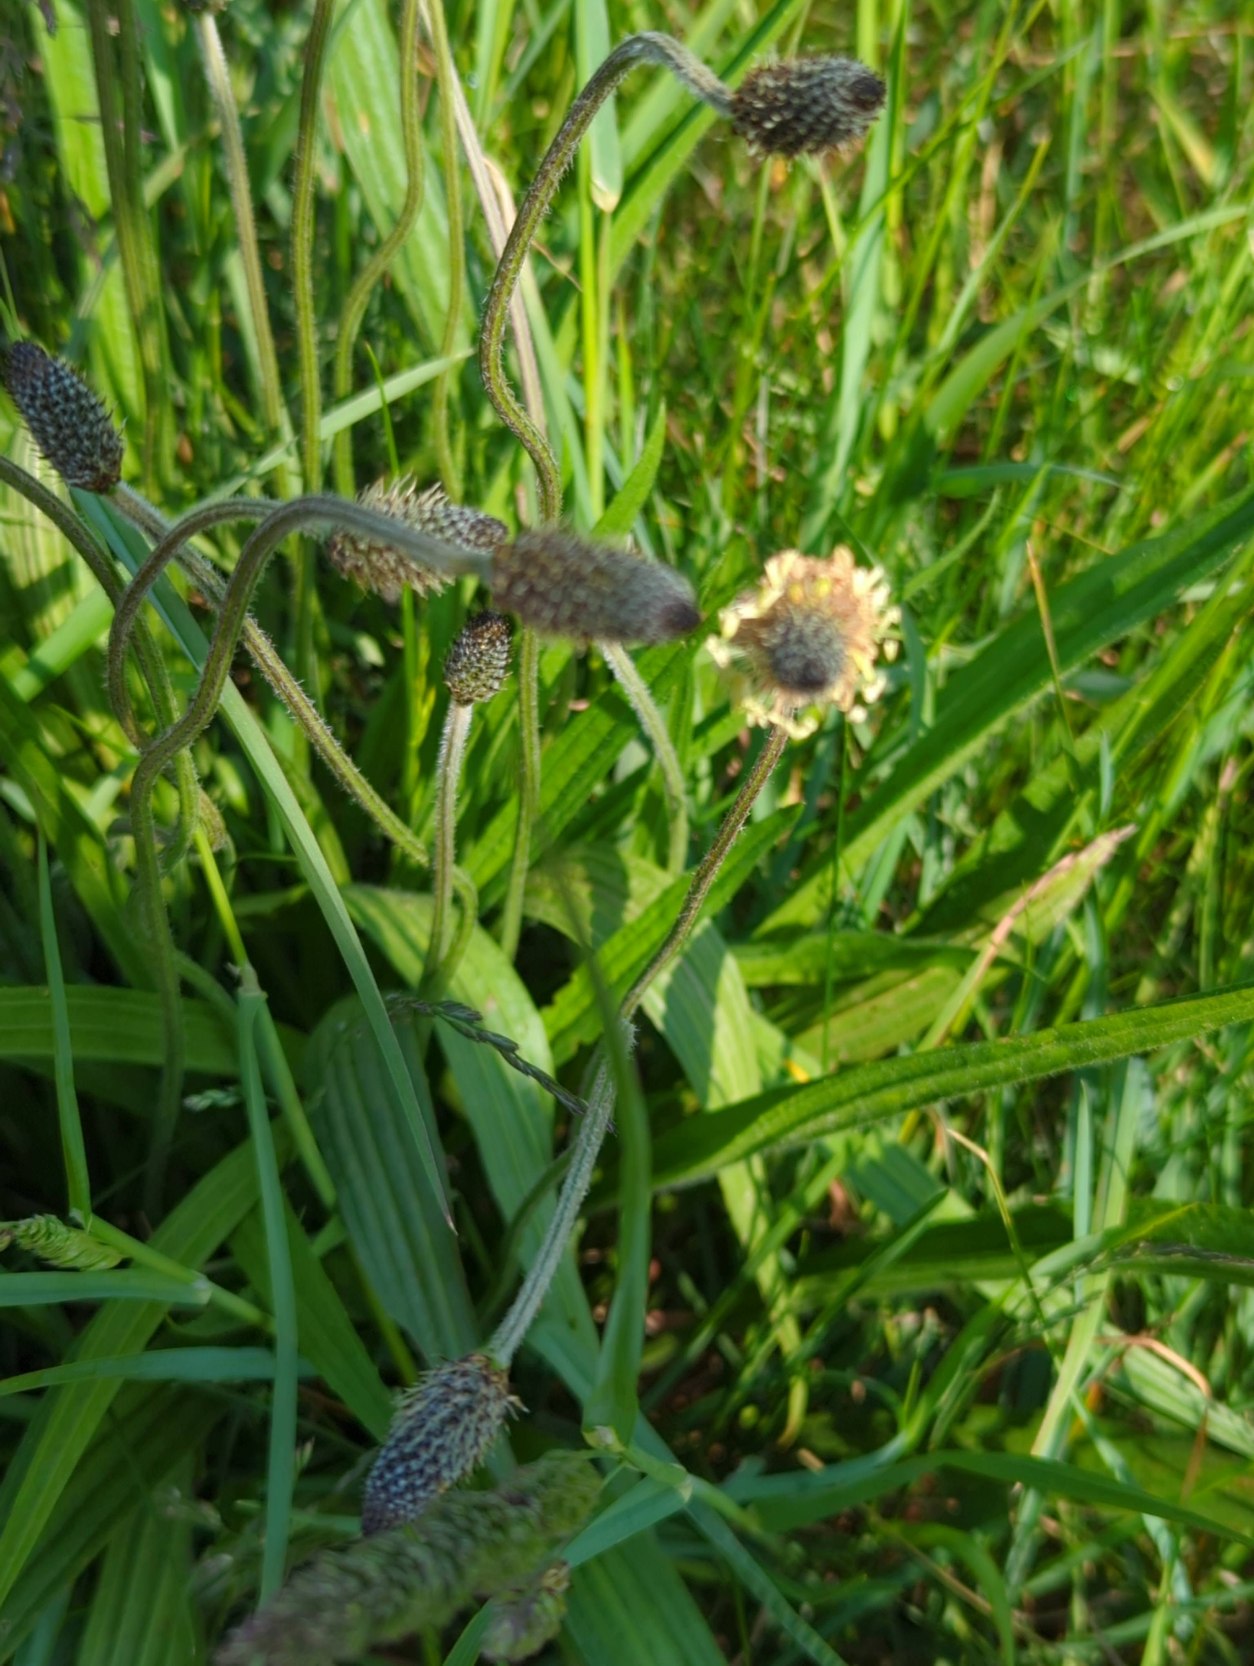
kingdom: Plantae
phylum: Tracheophyta
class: Magnoliopsida
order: Lamiales
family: Plantaginaceae
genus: Plantago
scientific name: Plantago lanceolata
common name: Lancet-vejbred
